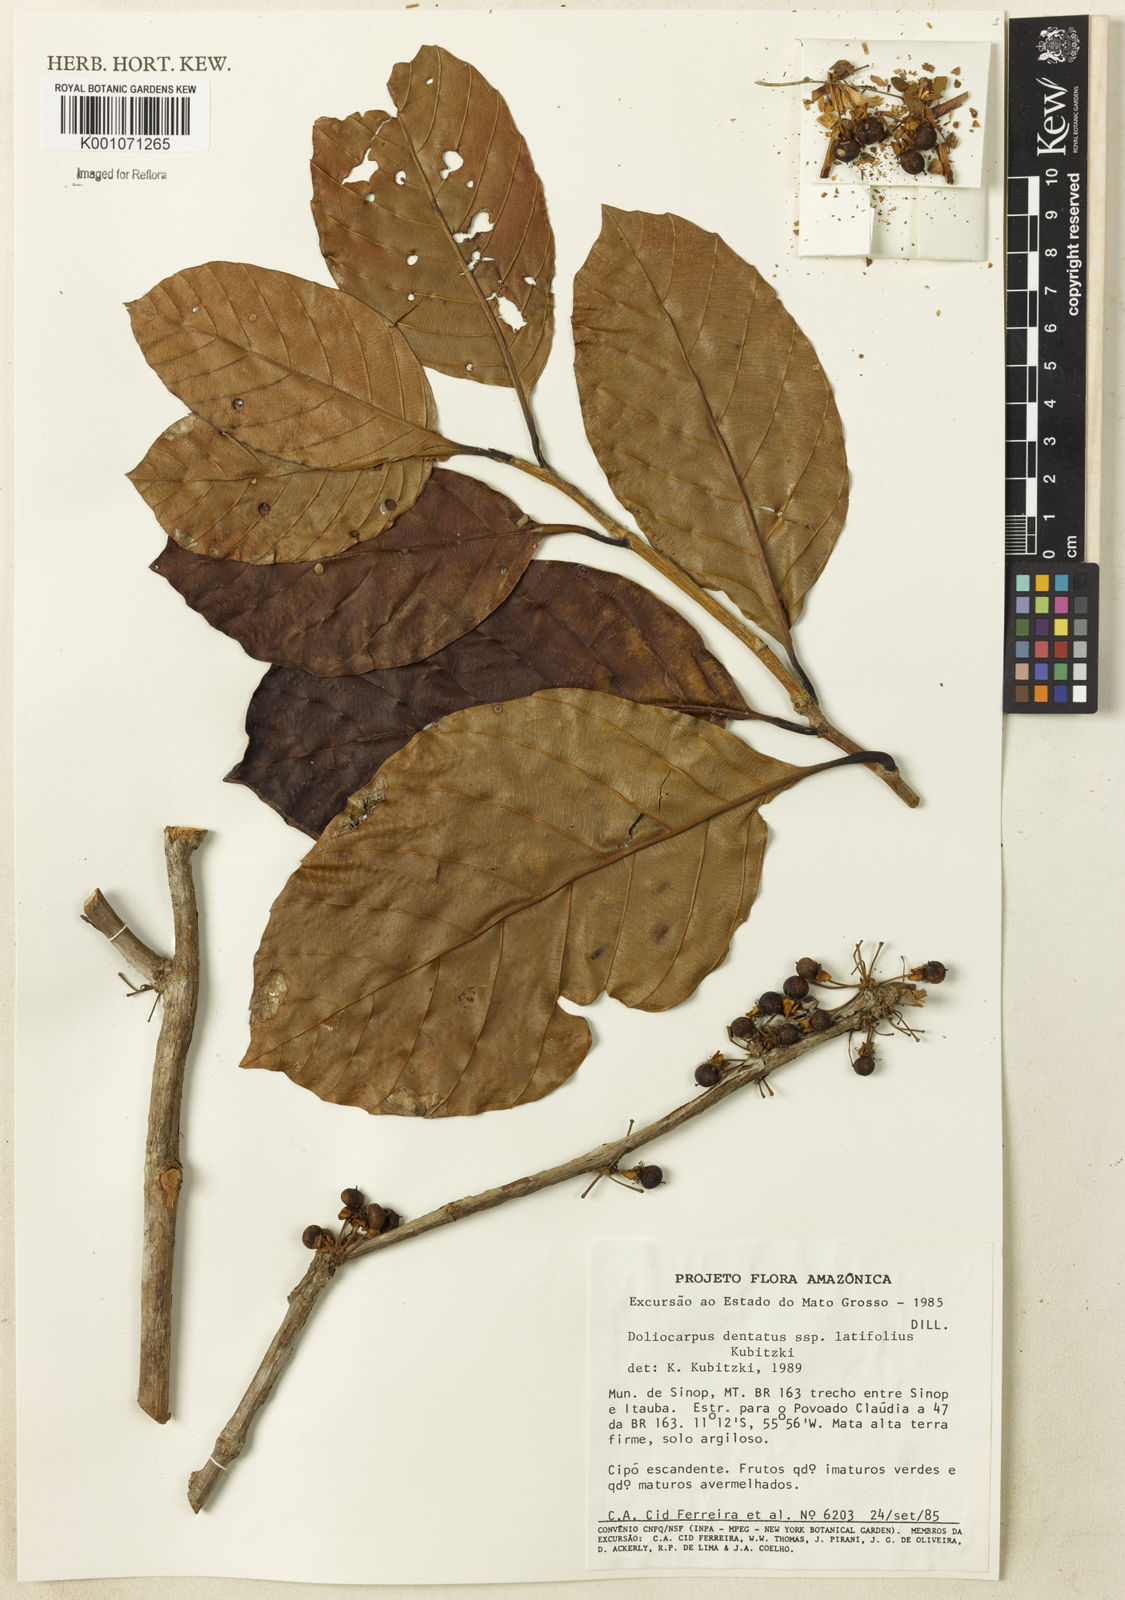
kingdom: Plantae
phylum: Tracheophyta
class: Magnoliopsida
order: Dilleniales
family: Dilleniaceae
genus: Doliocarpus
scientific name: Doliocarpus dentatus
